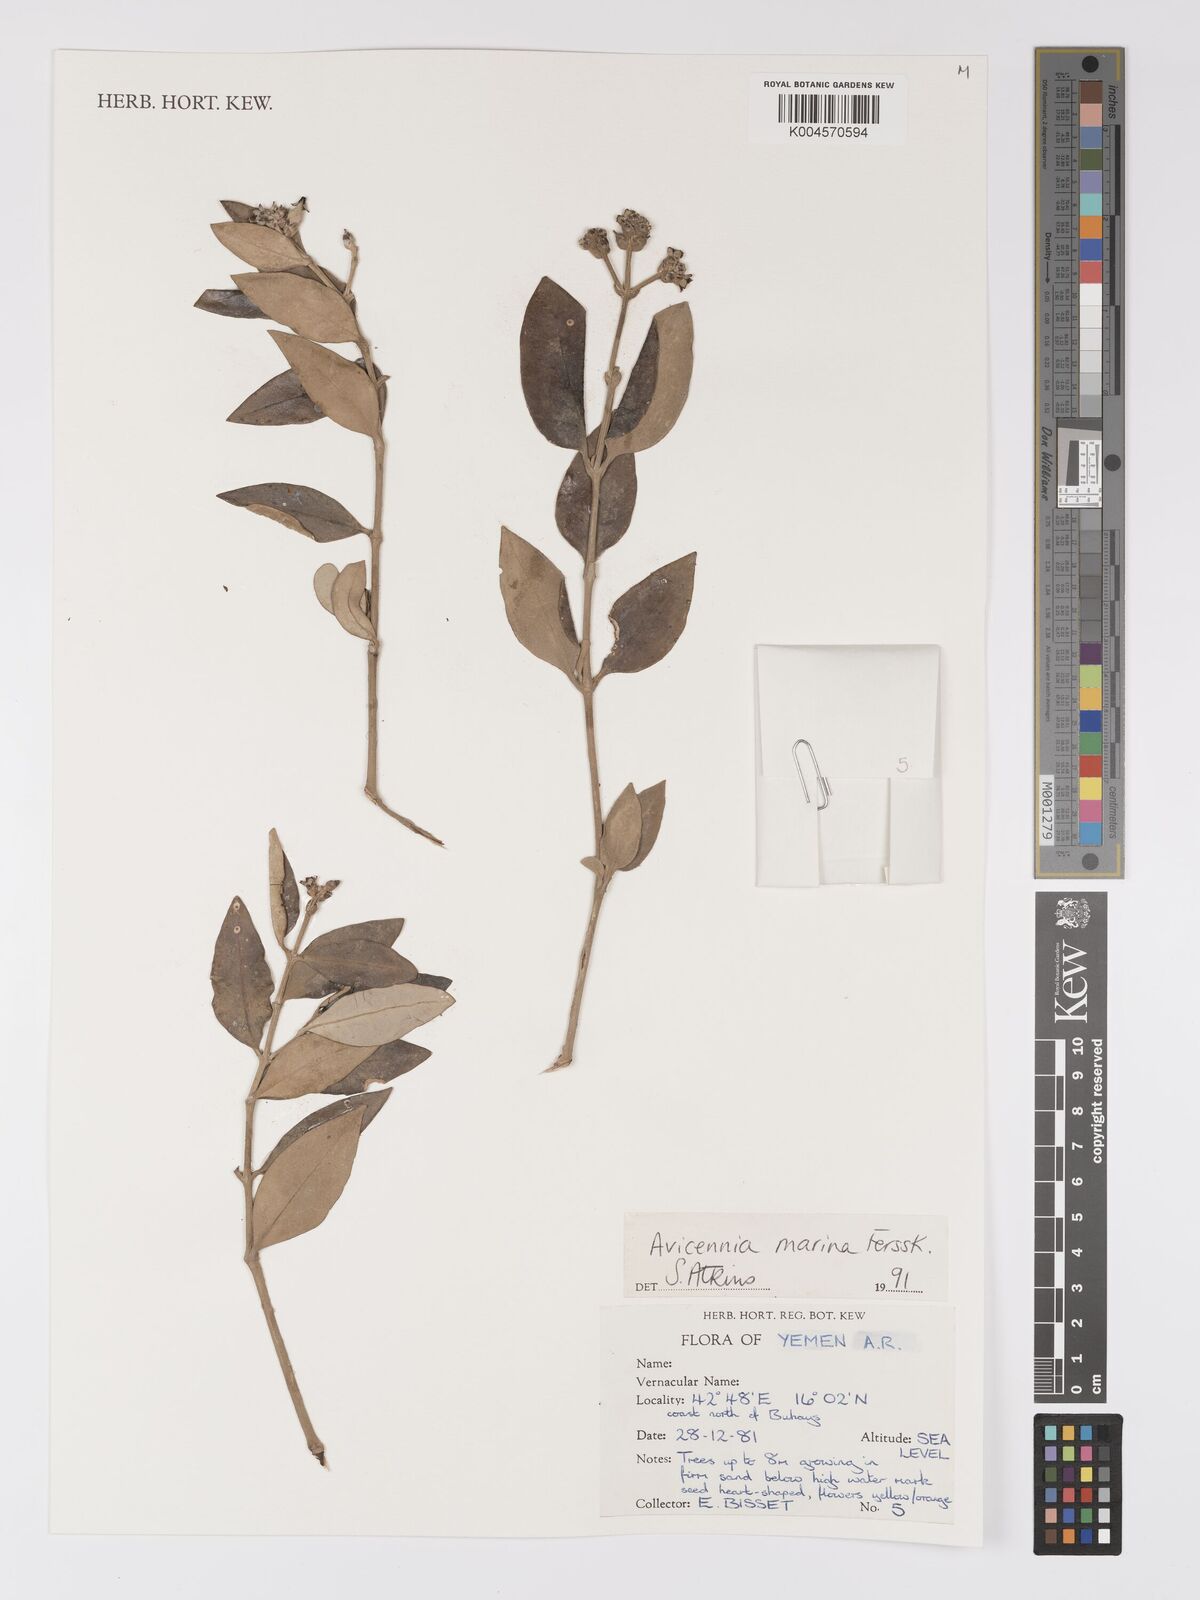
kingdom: Plantae
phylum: Tracheophyta
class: Magnoliopsida
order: Lamiales
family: Acanthaceae
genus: Avicennia
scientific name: Avicennia marina
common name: Gray mangrove
